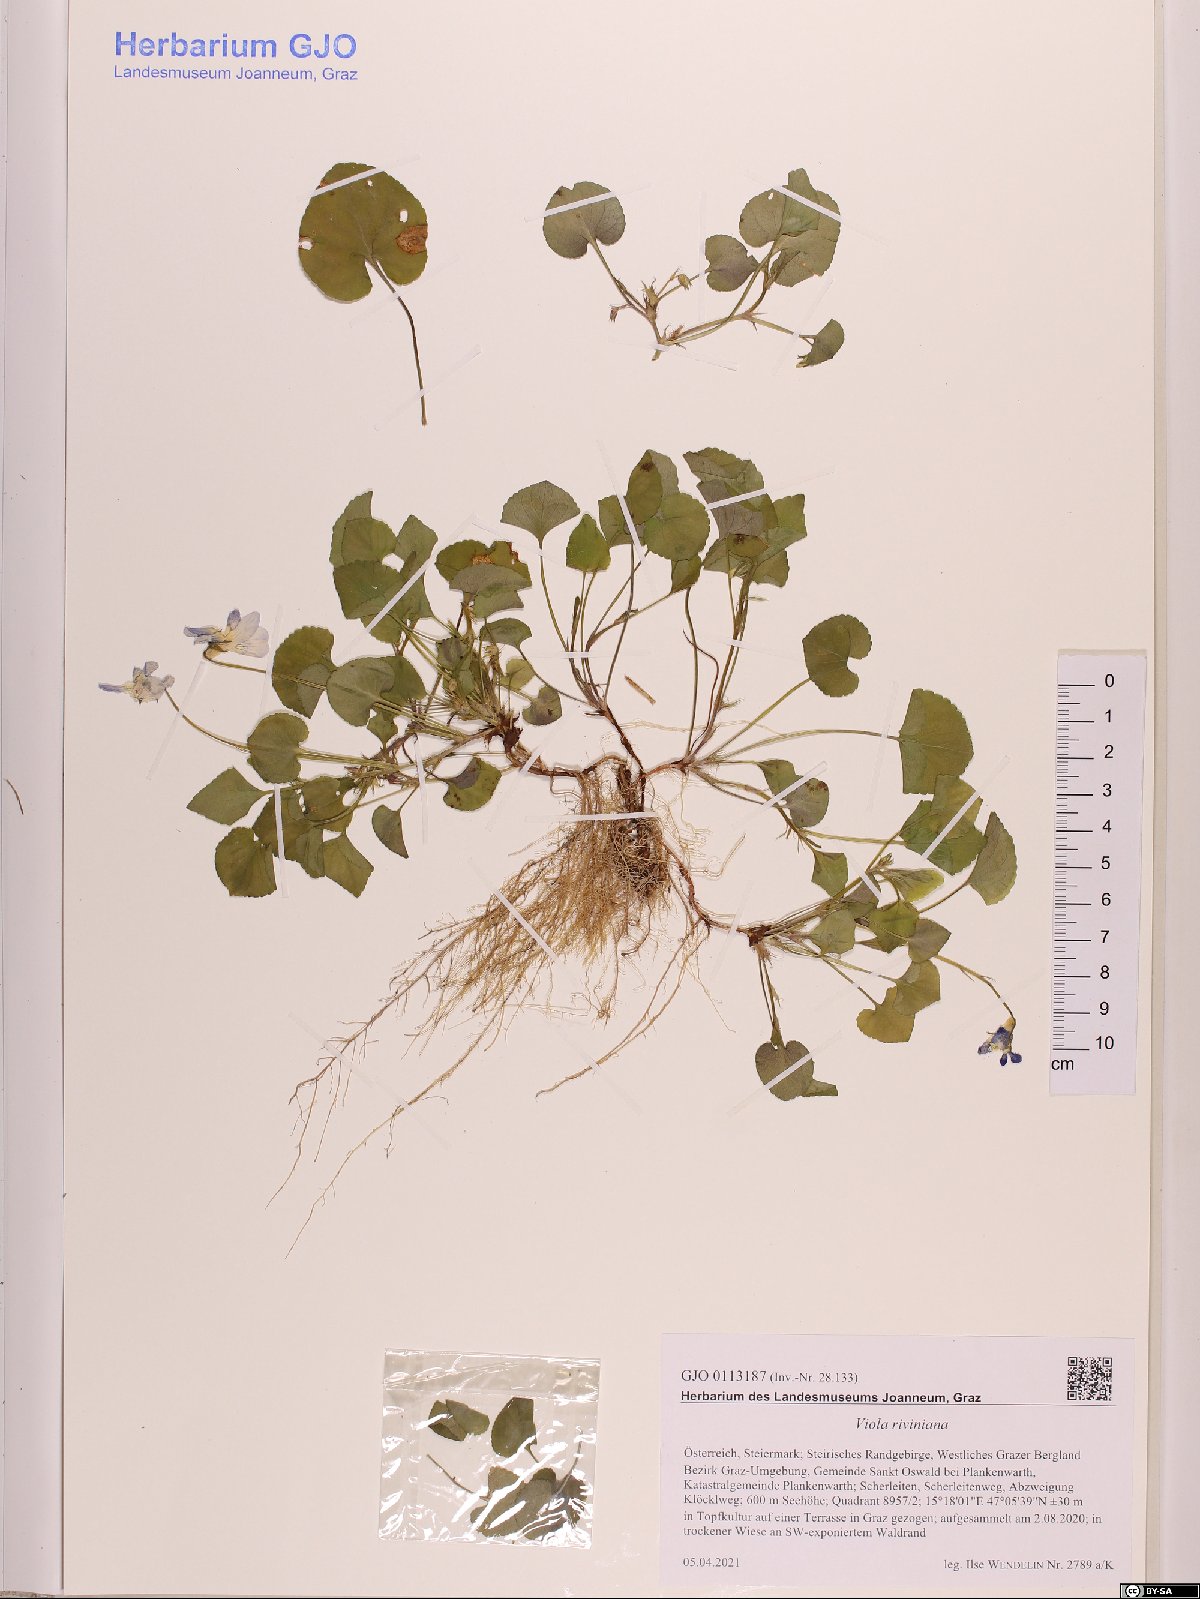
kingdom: Plantae
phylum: Tracheophyta
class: Magnoliopsida
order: Malpighiales
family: Violaceae
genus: Viola
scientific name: Viola riviniana
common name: Common dog-violet
